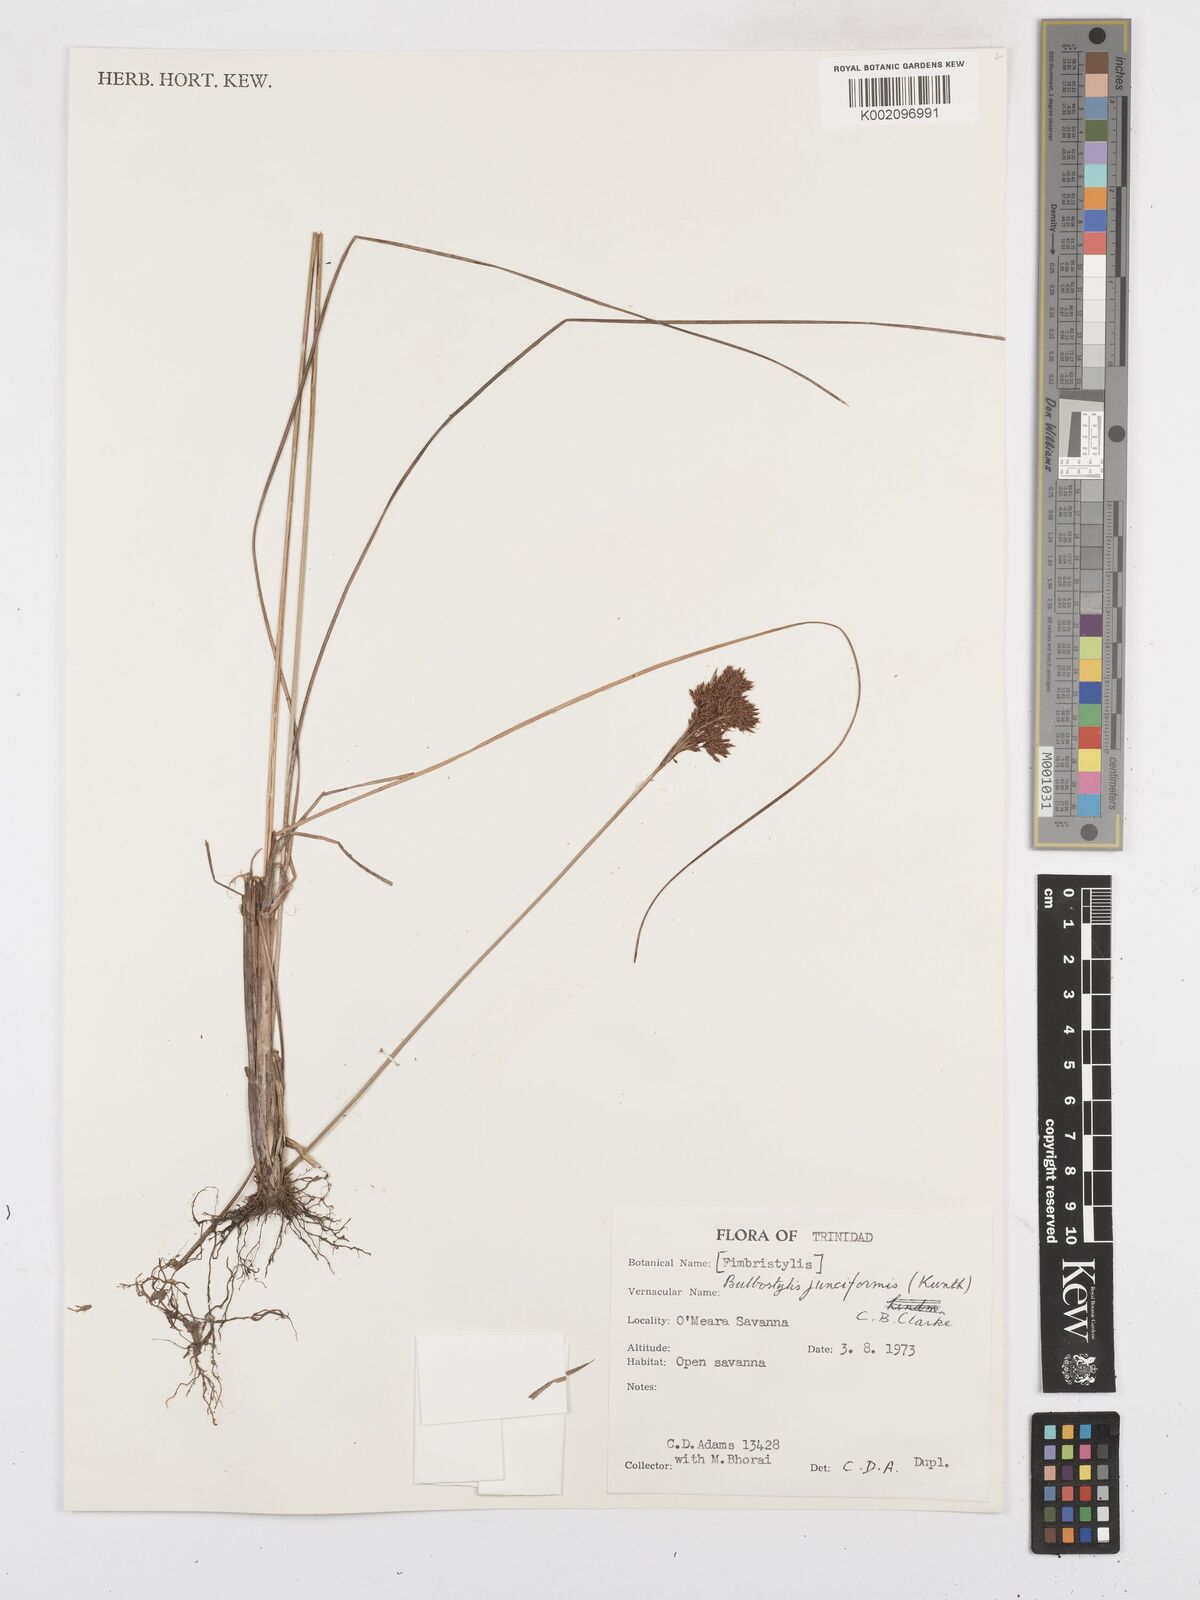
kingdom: Plantae
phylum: Tracheophyta
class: Liliopsida
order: Poales
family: Cyperaceae
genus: Bulbostylis
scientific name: Bulbostylis junciformis
